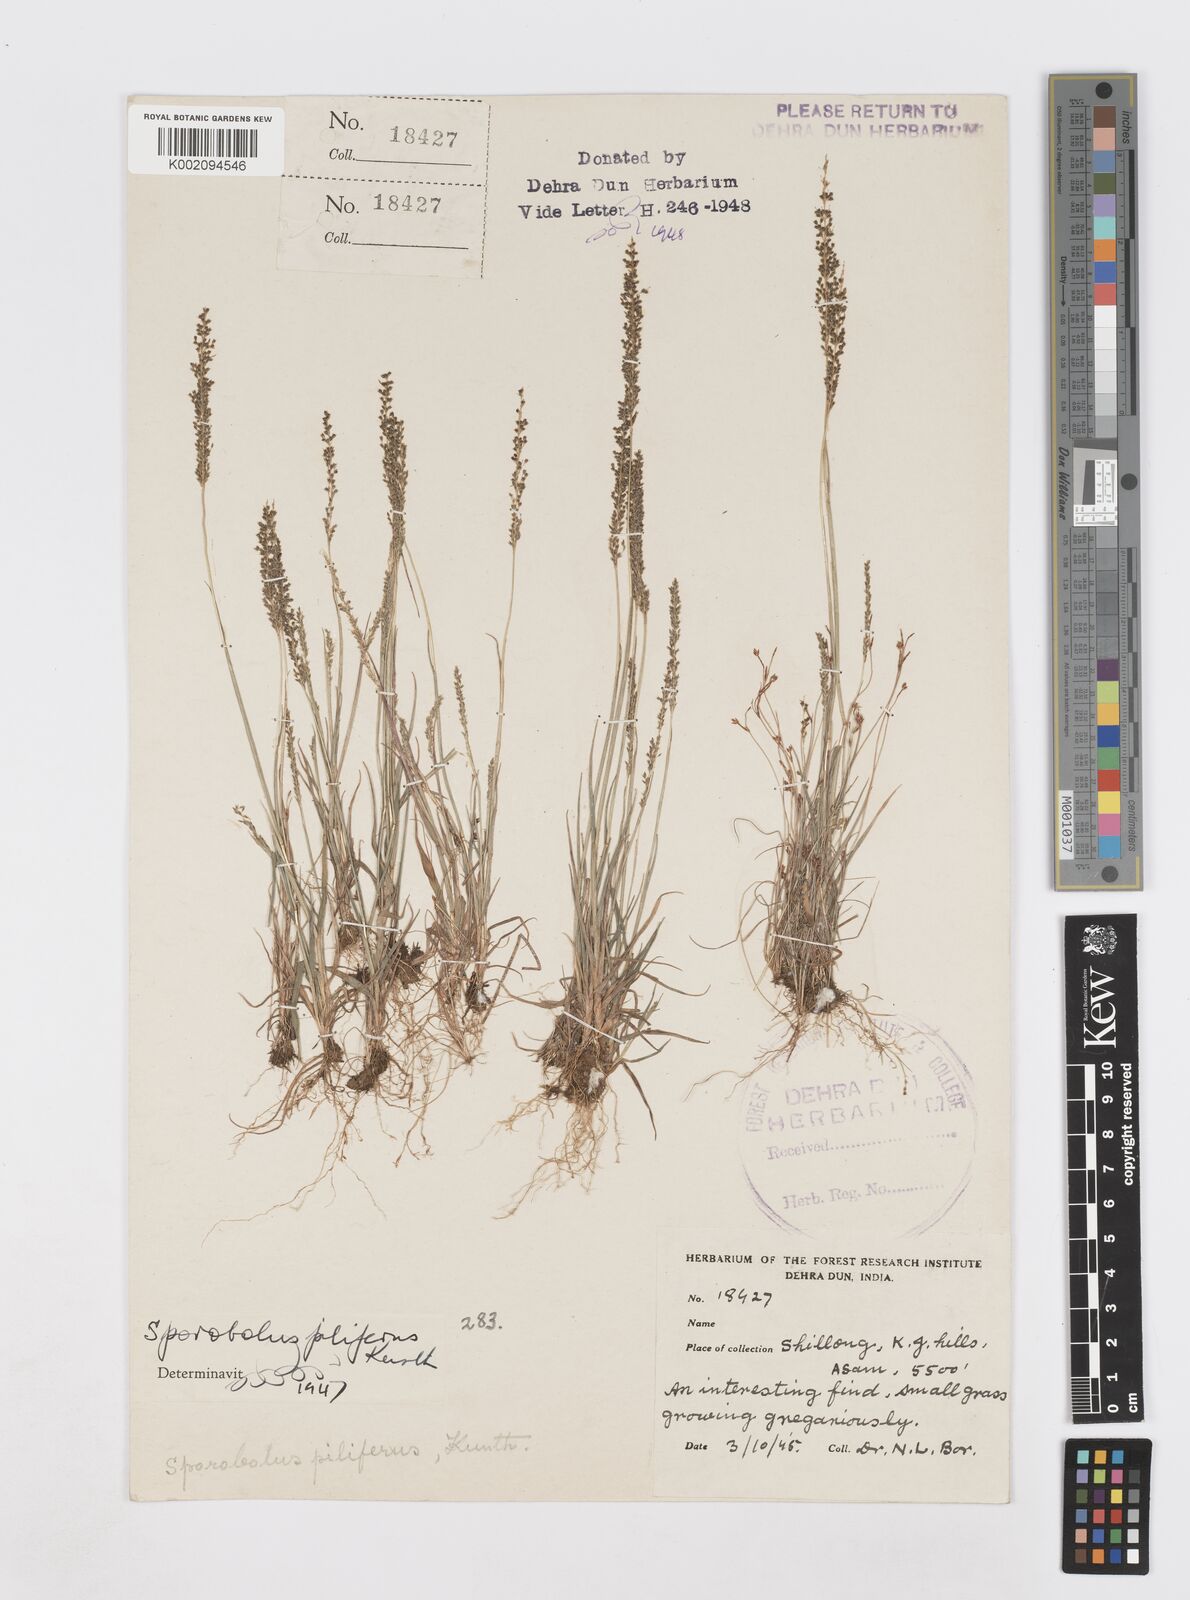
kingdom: Plantae
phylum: Tracheophyta
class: Liliopsida
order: Poales
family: Poaceae
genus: Sporobolus
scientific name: Sporobolus pilifer
